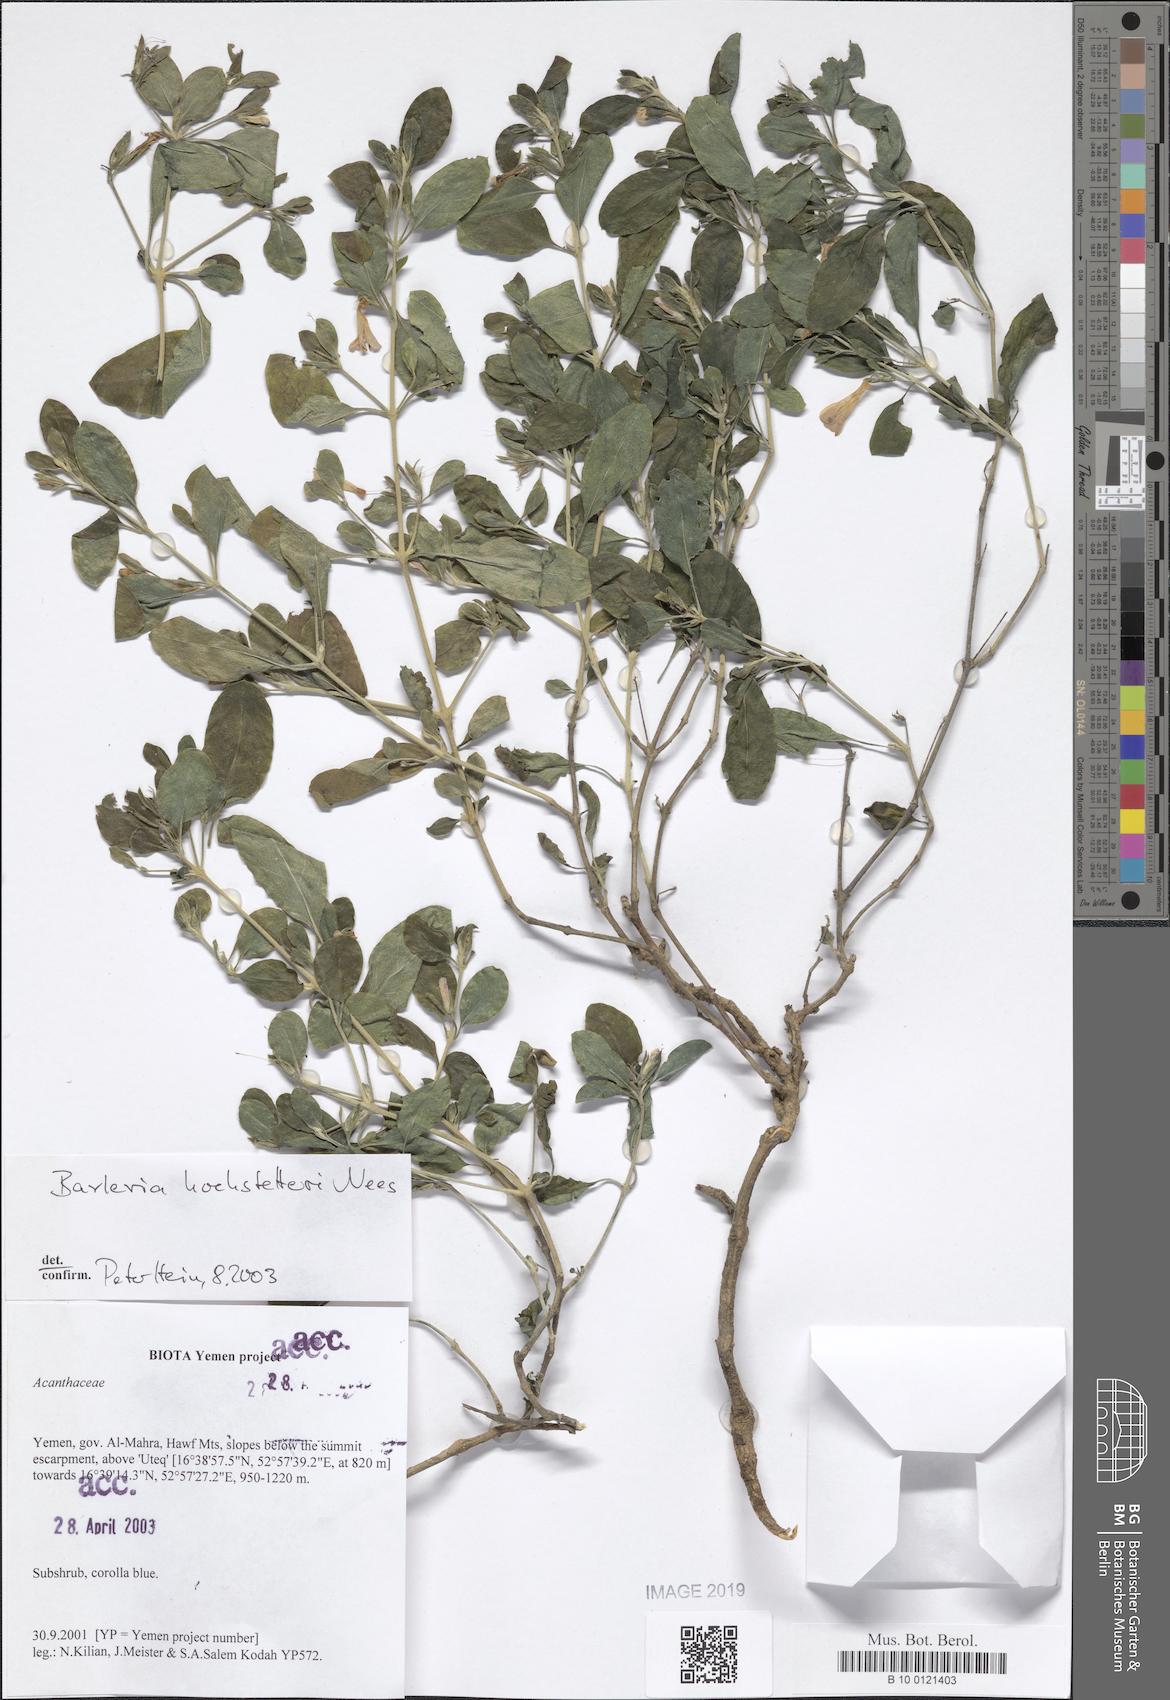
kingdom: Plantae
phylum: Tracheophyta
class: Magnoliopsida
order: Lamiales
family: Acanthaceae
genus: Barleria
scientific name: Barleria hochstetteri
